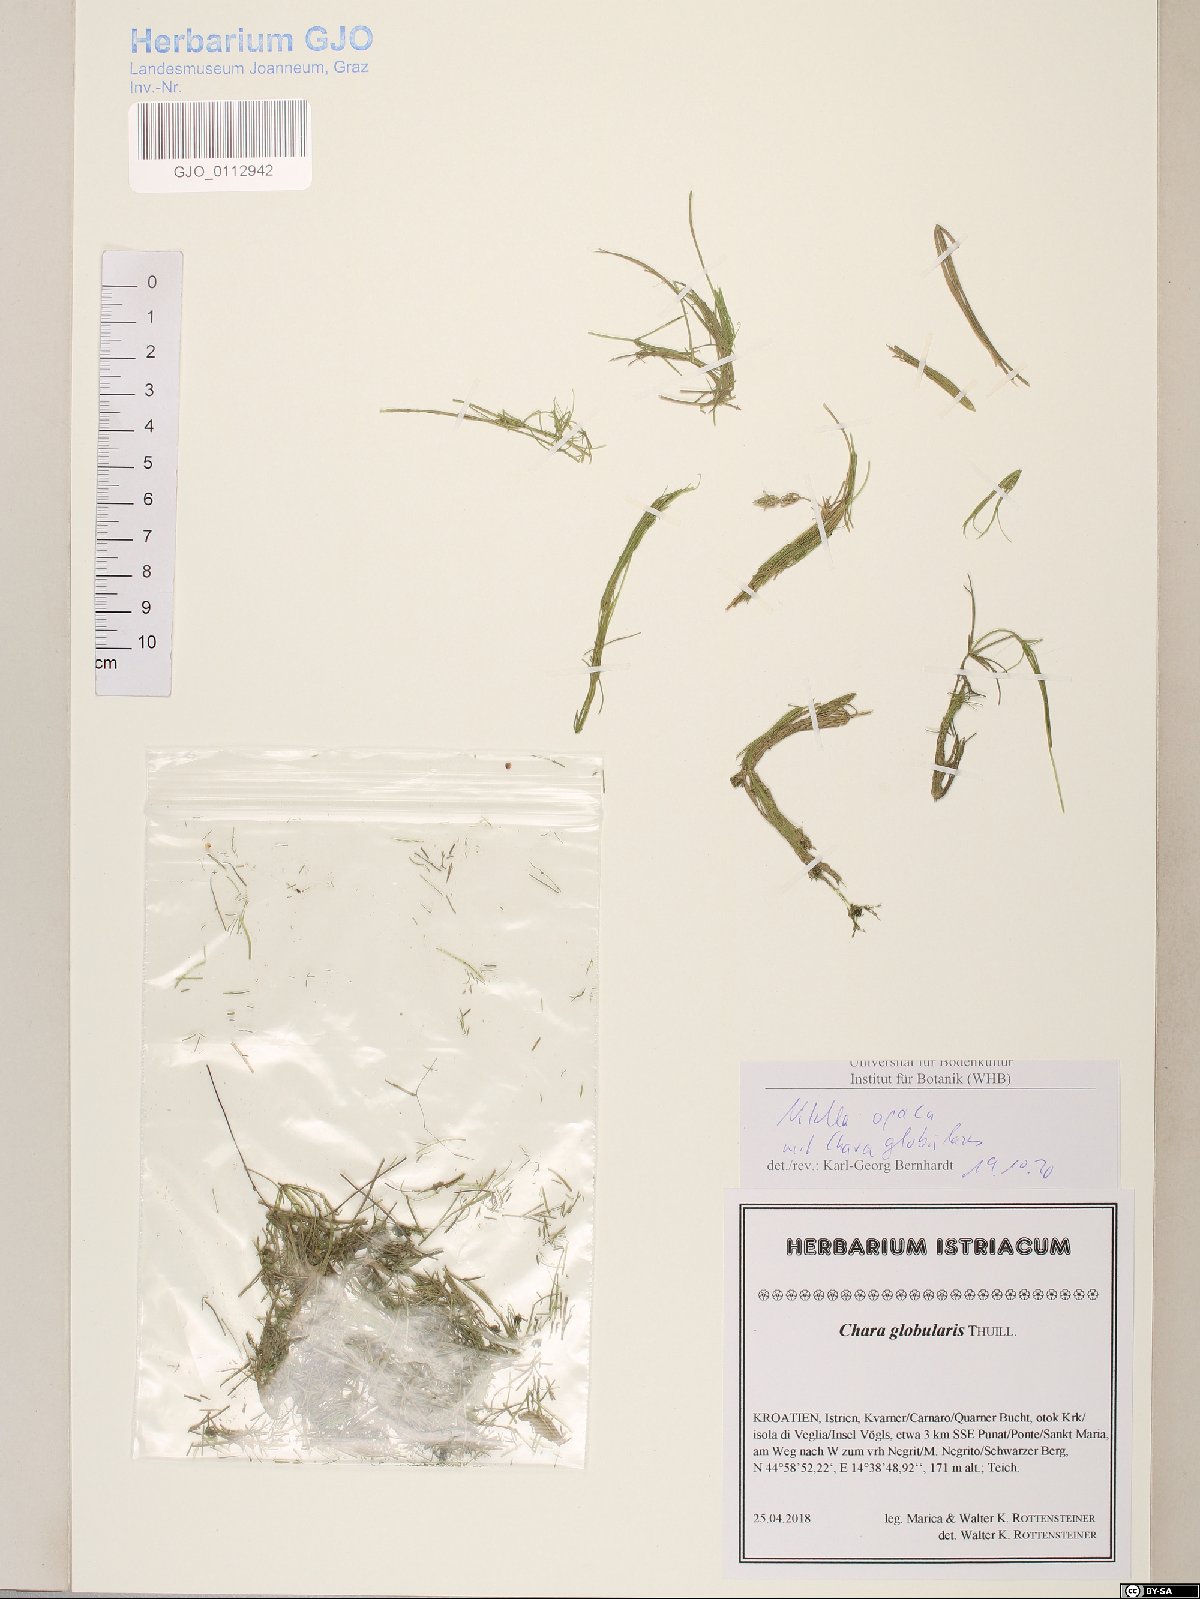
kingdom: Plantae
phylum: Charophyta
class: Charophyceae
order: Charales
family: Characeae
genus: Nitella
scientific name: Nitella opaca
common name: Dark stonewort
